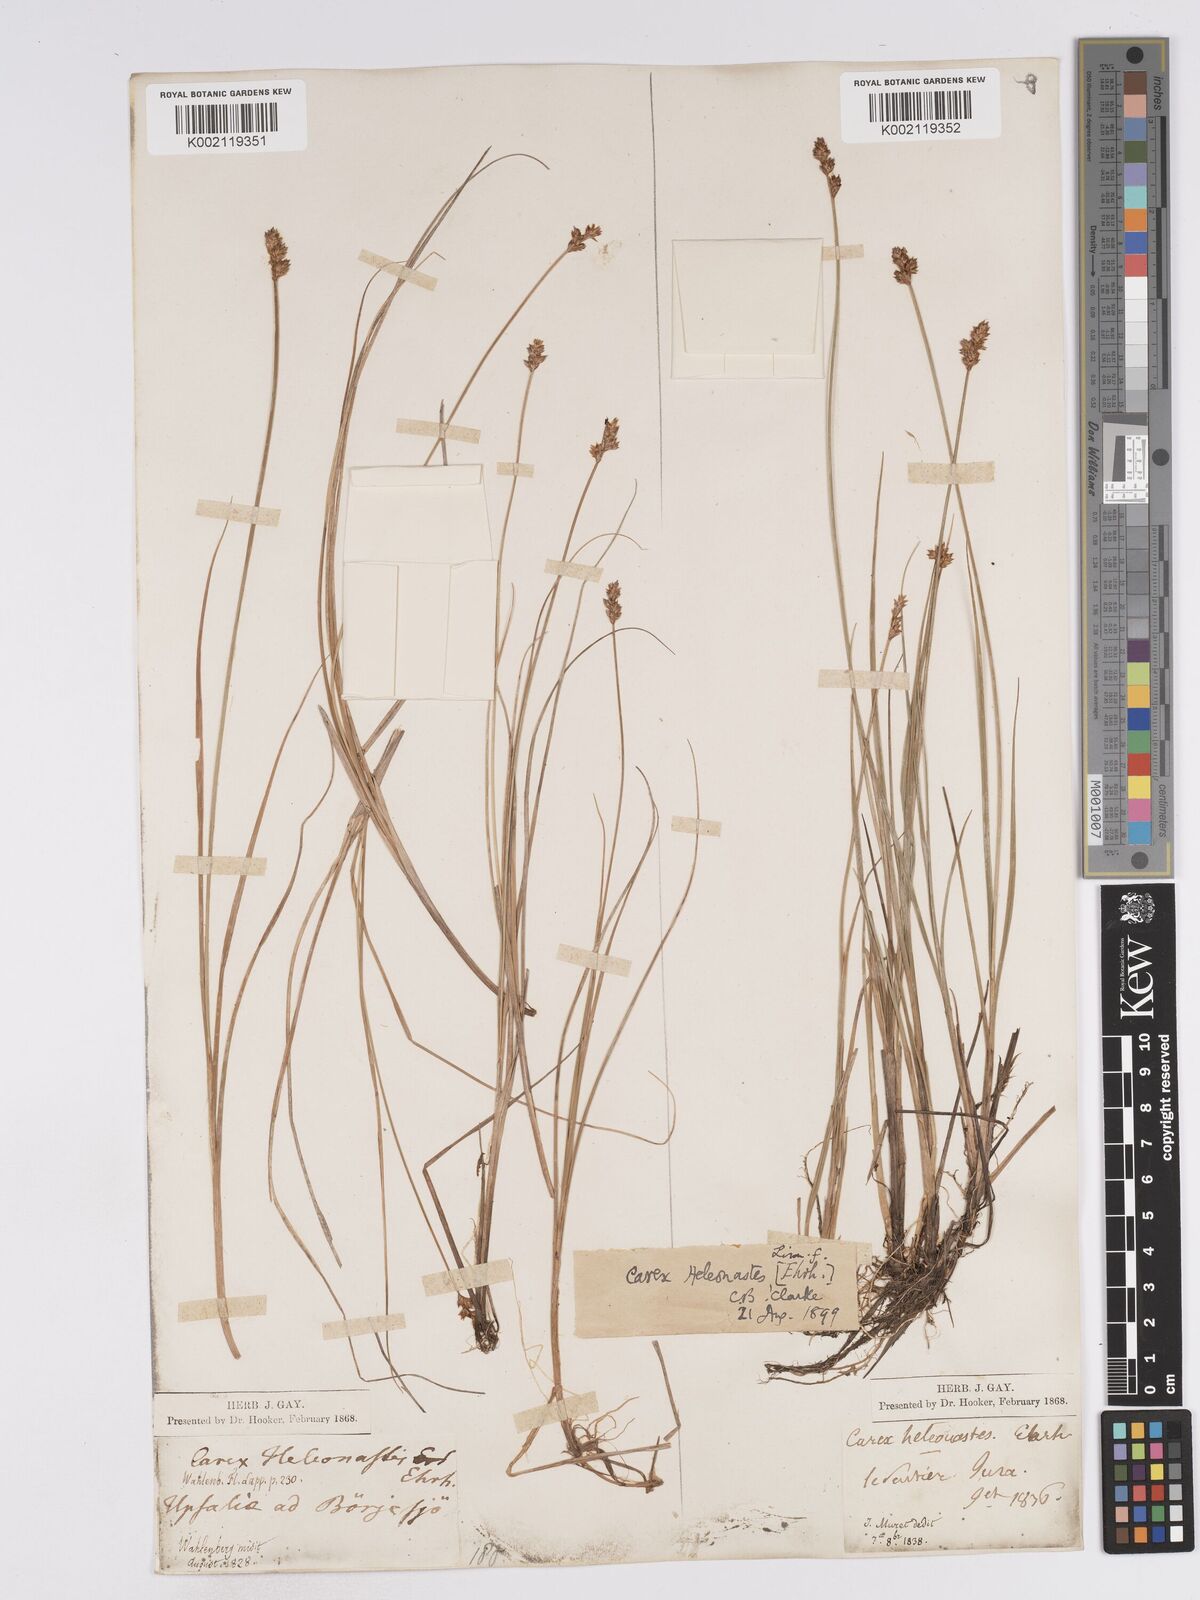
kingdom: Plantae
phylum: Tracheophyta
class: Liliopsida
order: Poales
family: Cyperaceae
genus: Carex
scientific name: Carex heleonastes
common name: Hudson bay sedge
